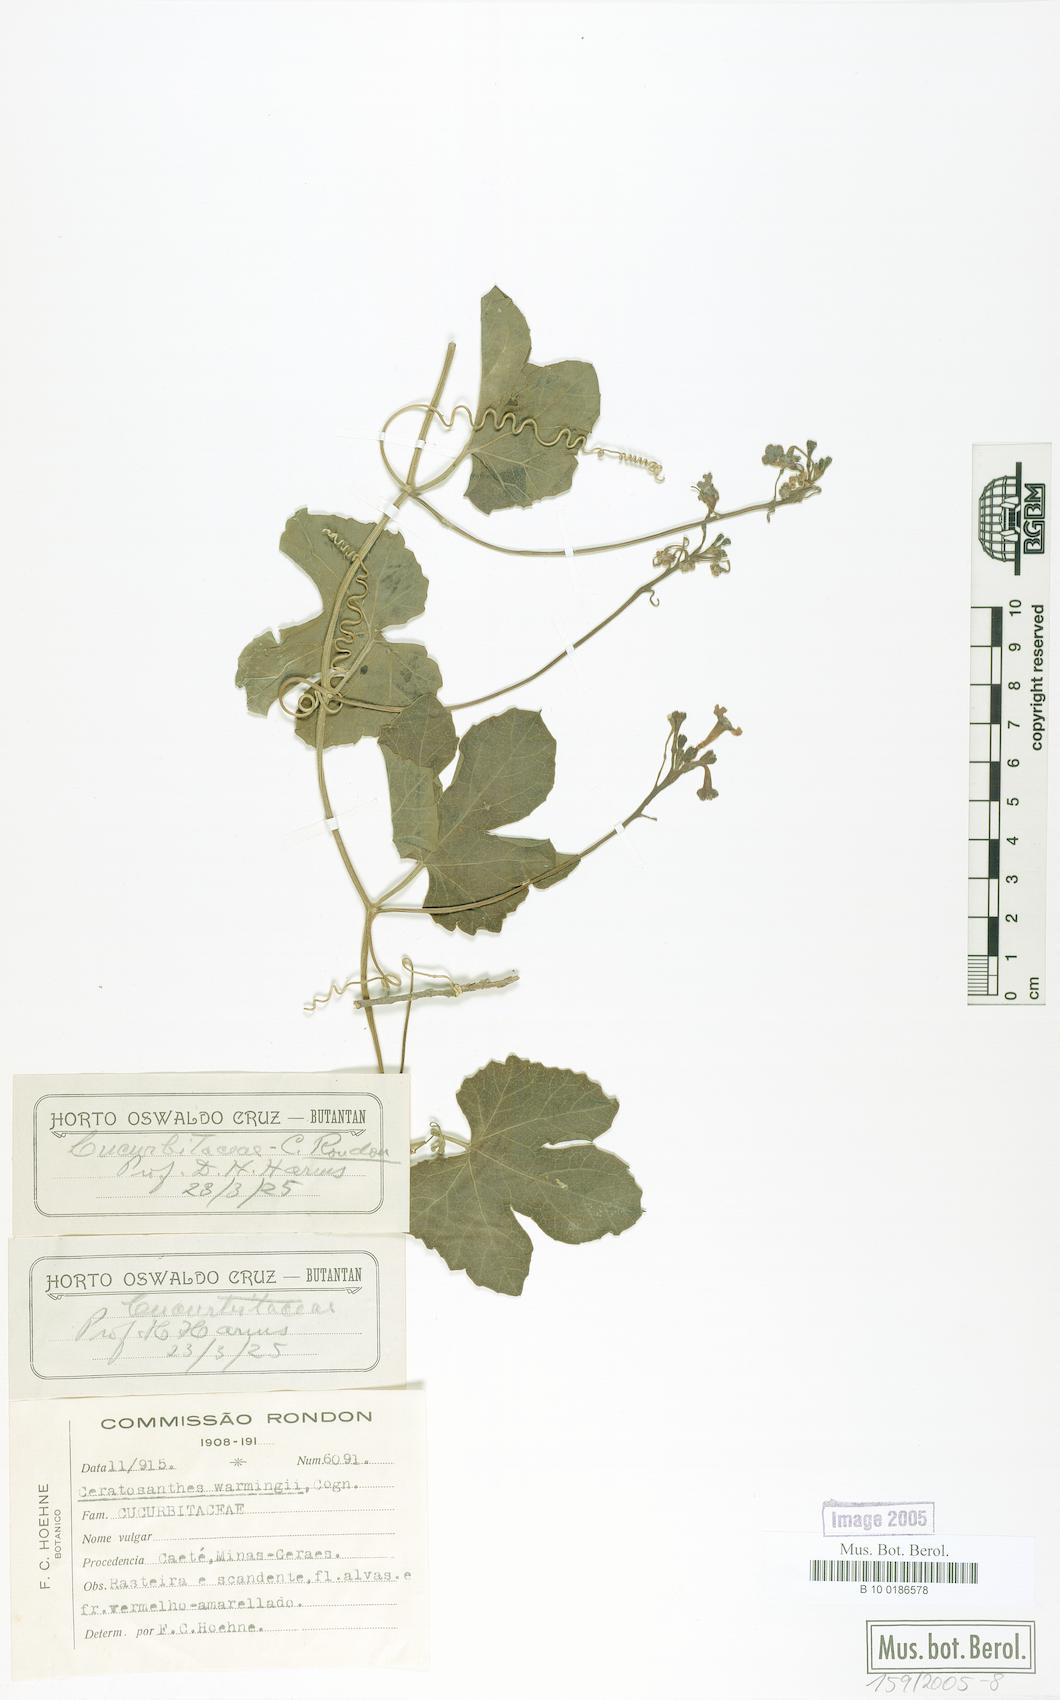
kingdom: Plantae
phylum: Tracheophyta
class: Magnoliopsida
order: Cucurbitales
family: Cucurbitaceae
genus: Ceratosanthes
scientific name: Ceratosanthes warmingii
